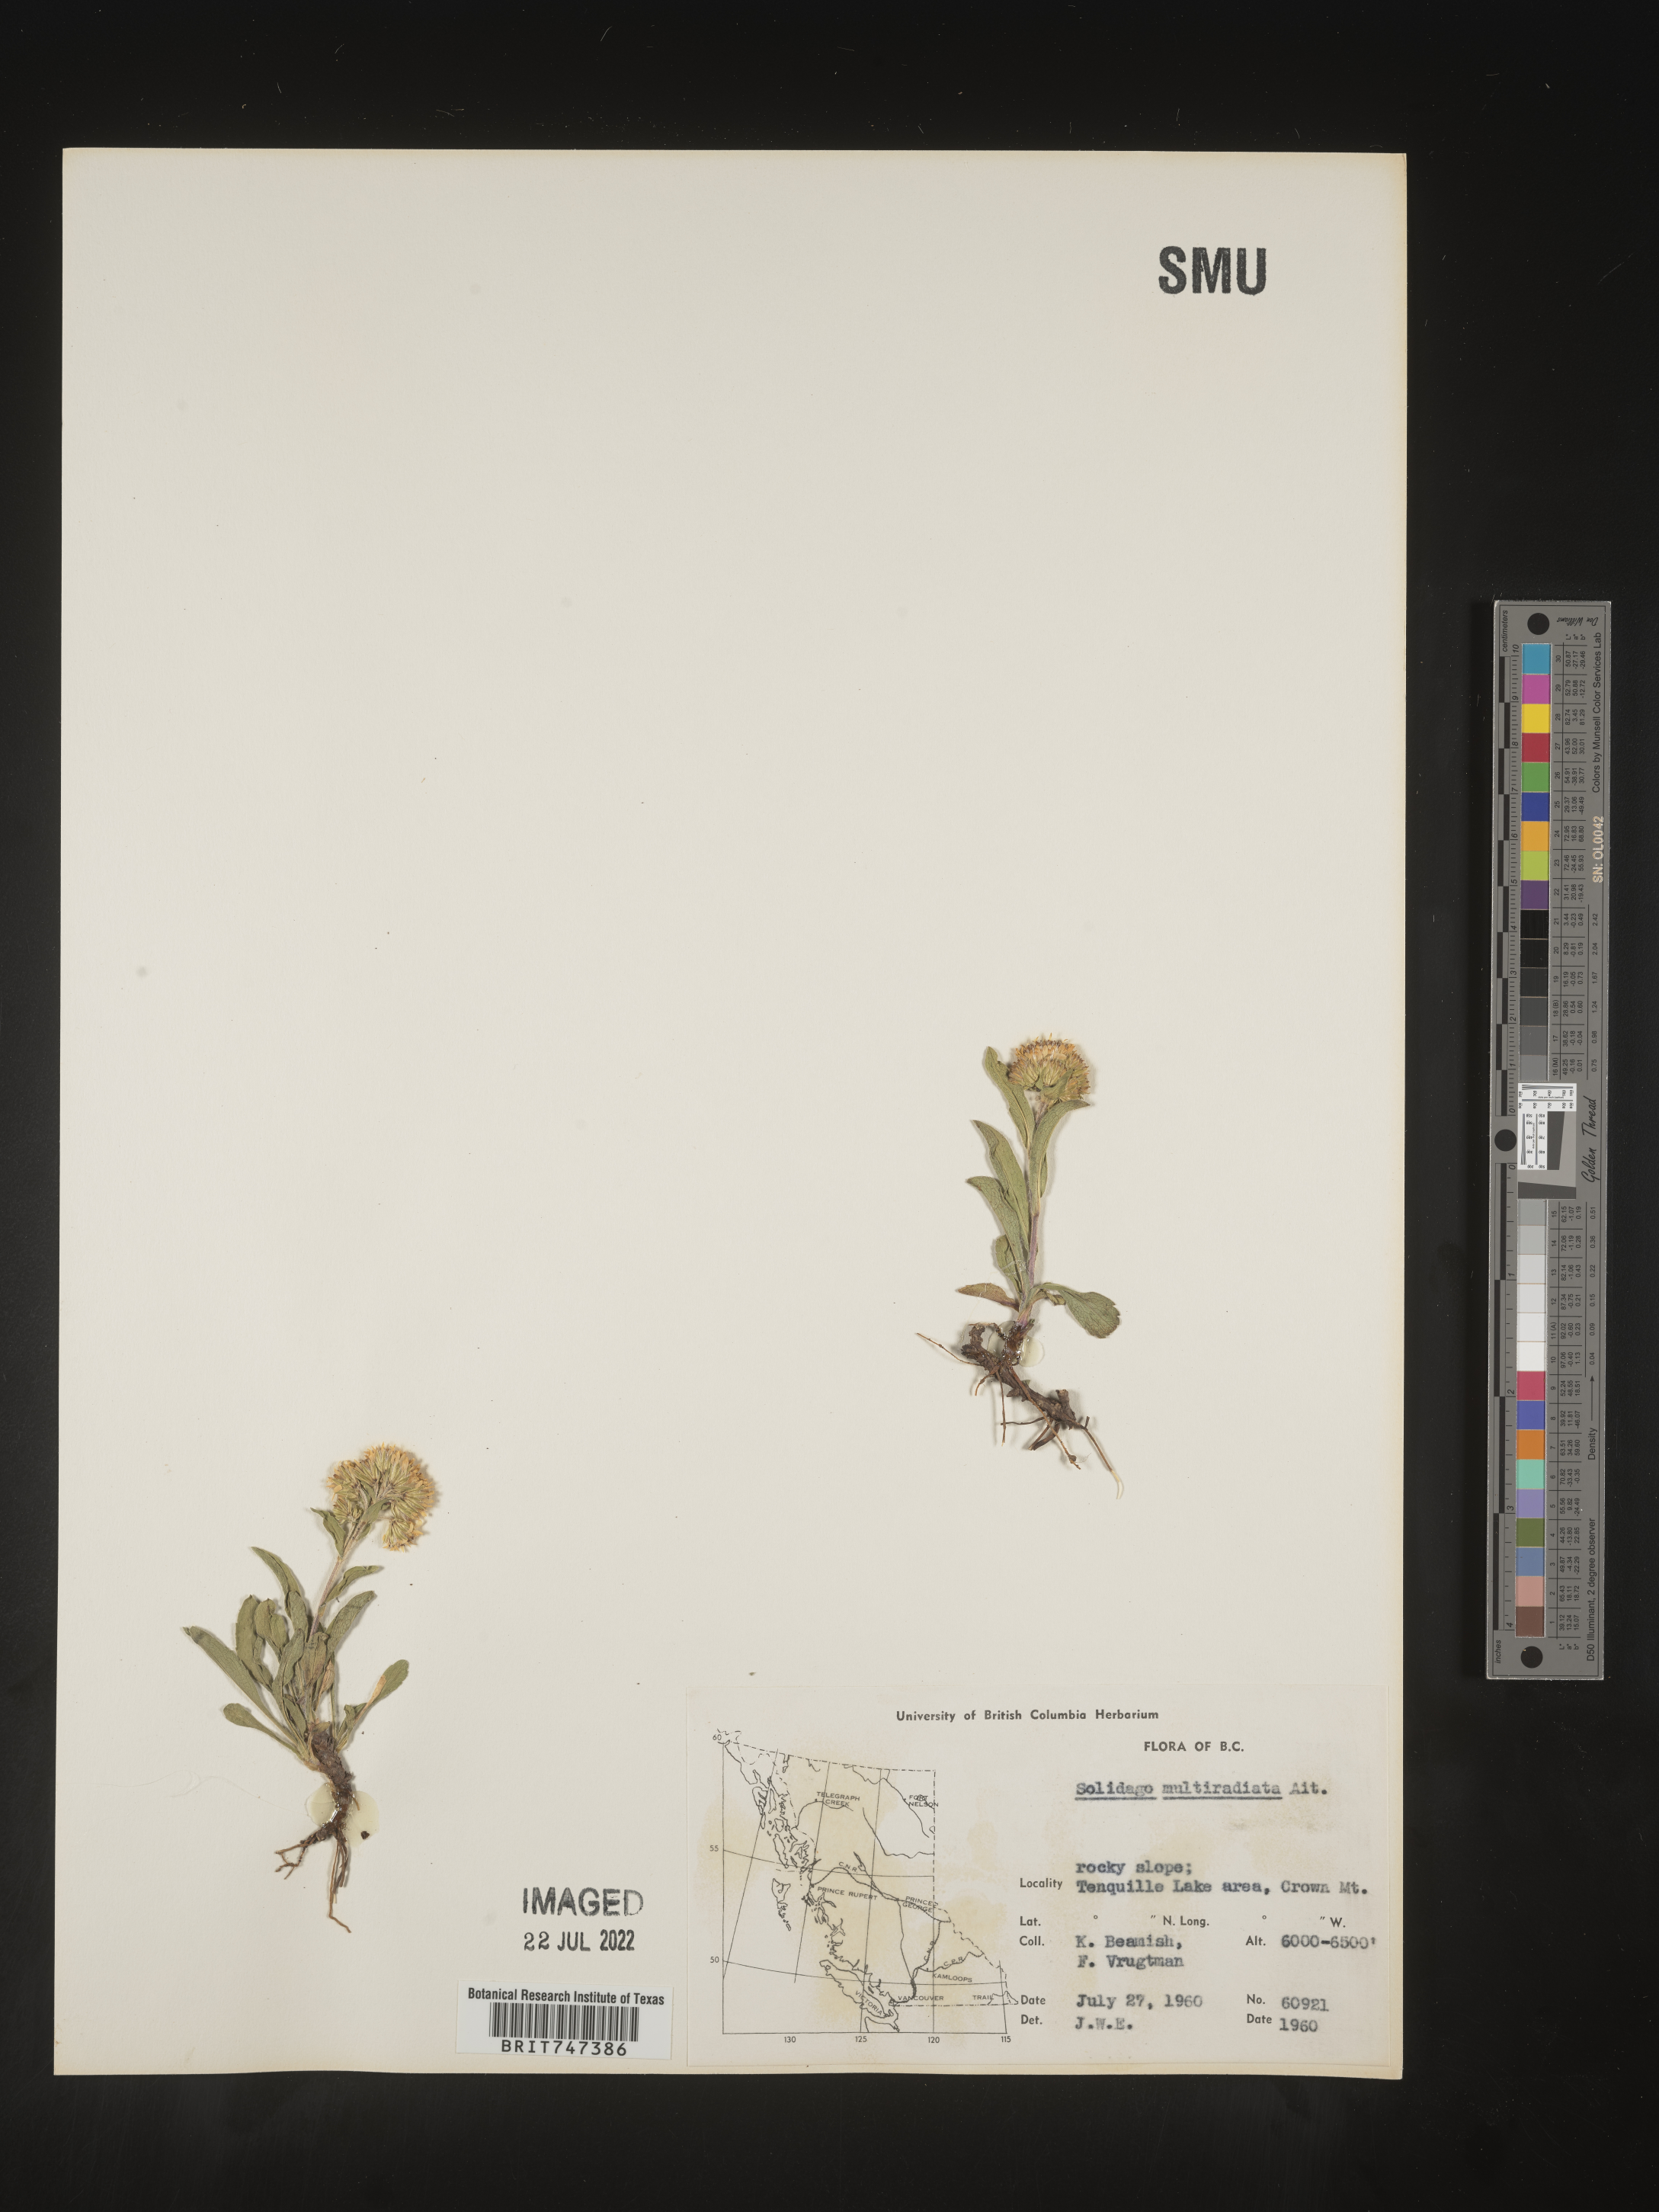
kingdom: Plantae
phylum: Tracheophyta
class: Magnoliopsida
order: Asterales
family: Asteraceae
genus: Solidago
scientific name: Solidago multiradiata
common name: Northern goldenrod
